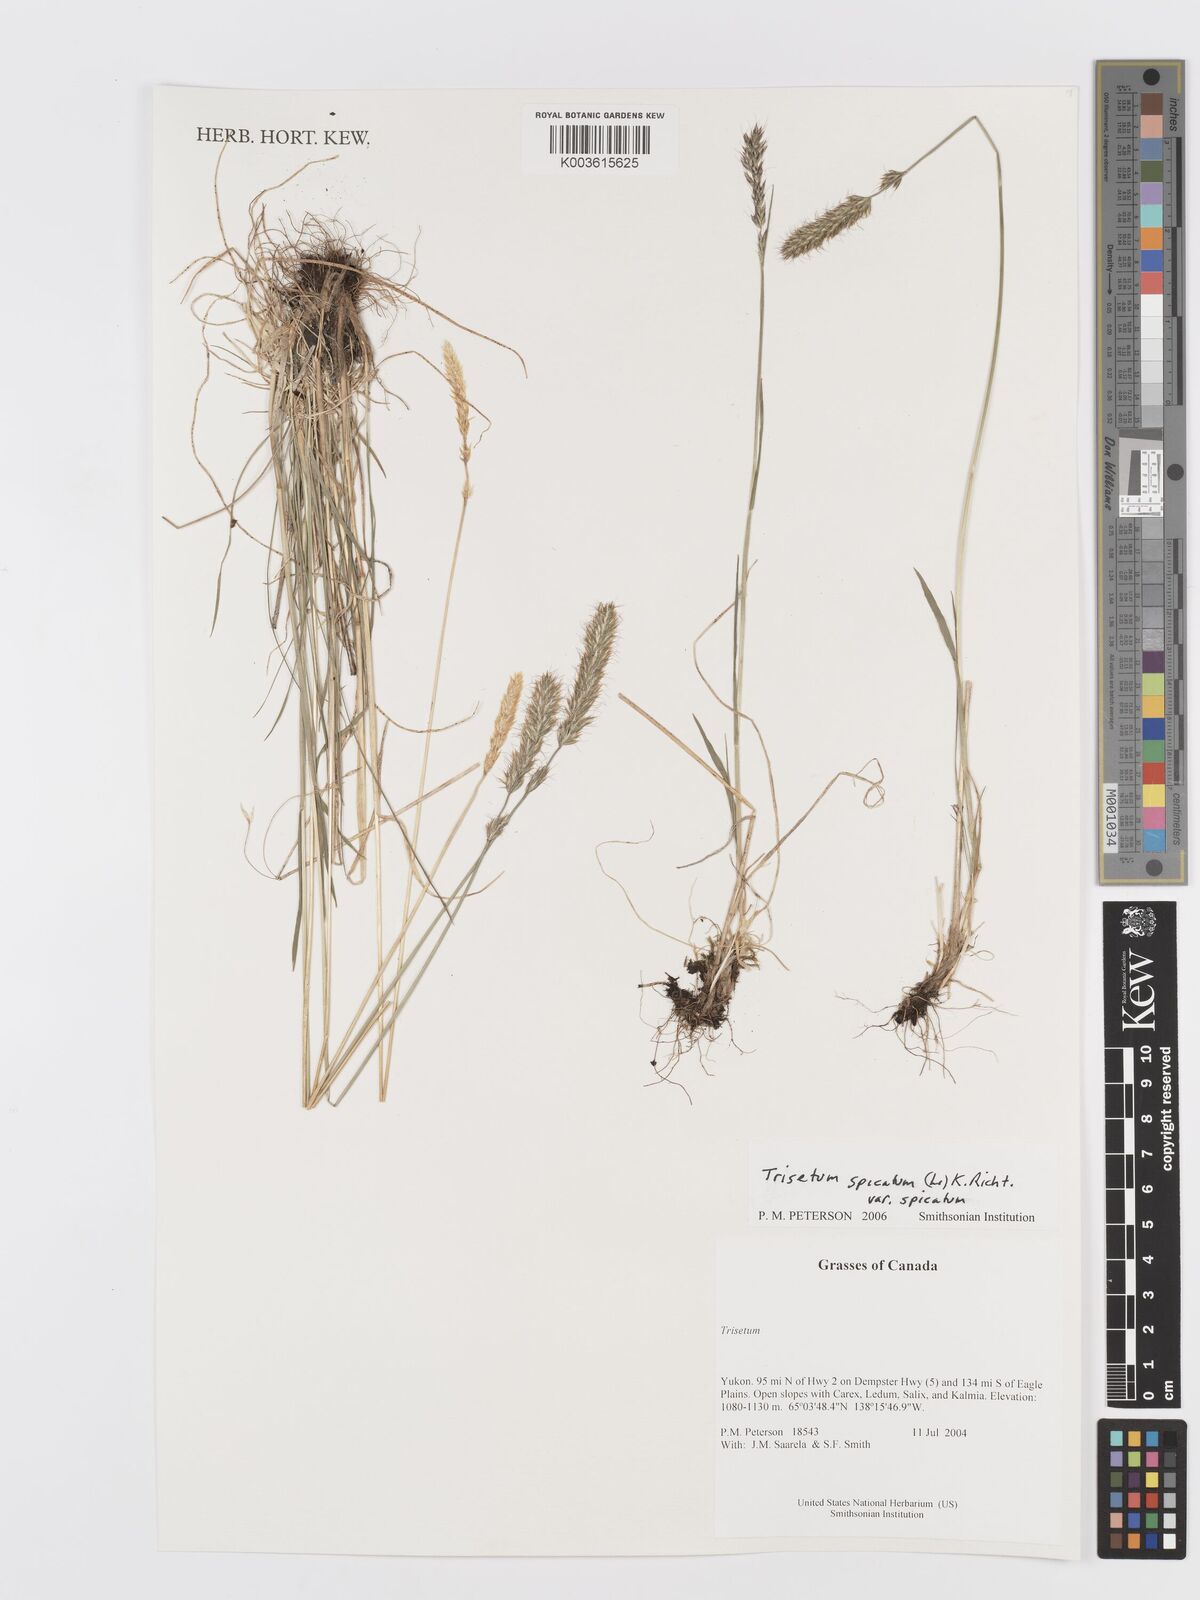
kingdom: Plantae
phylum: Tracheophyta
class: Liliopsida
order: Poales
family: Poaceae
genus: Koeleria
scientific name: Koeleria spicata
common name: Mountain trisetum
